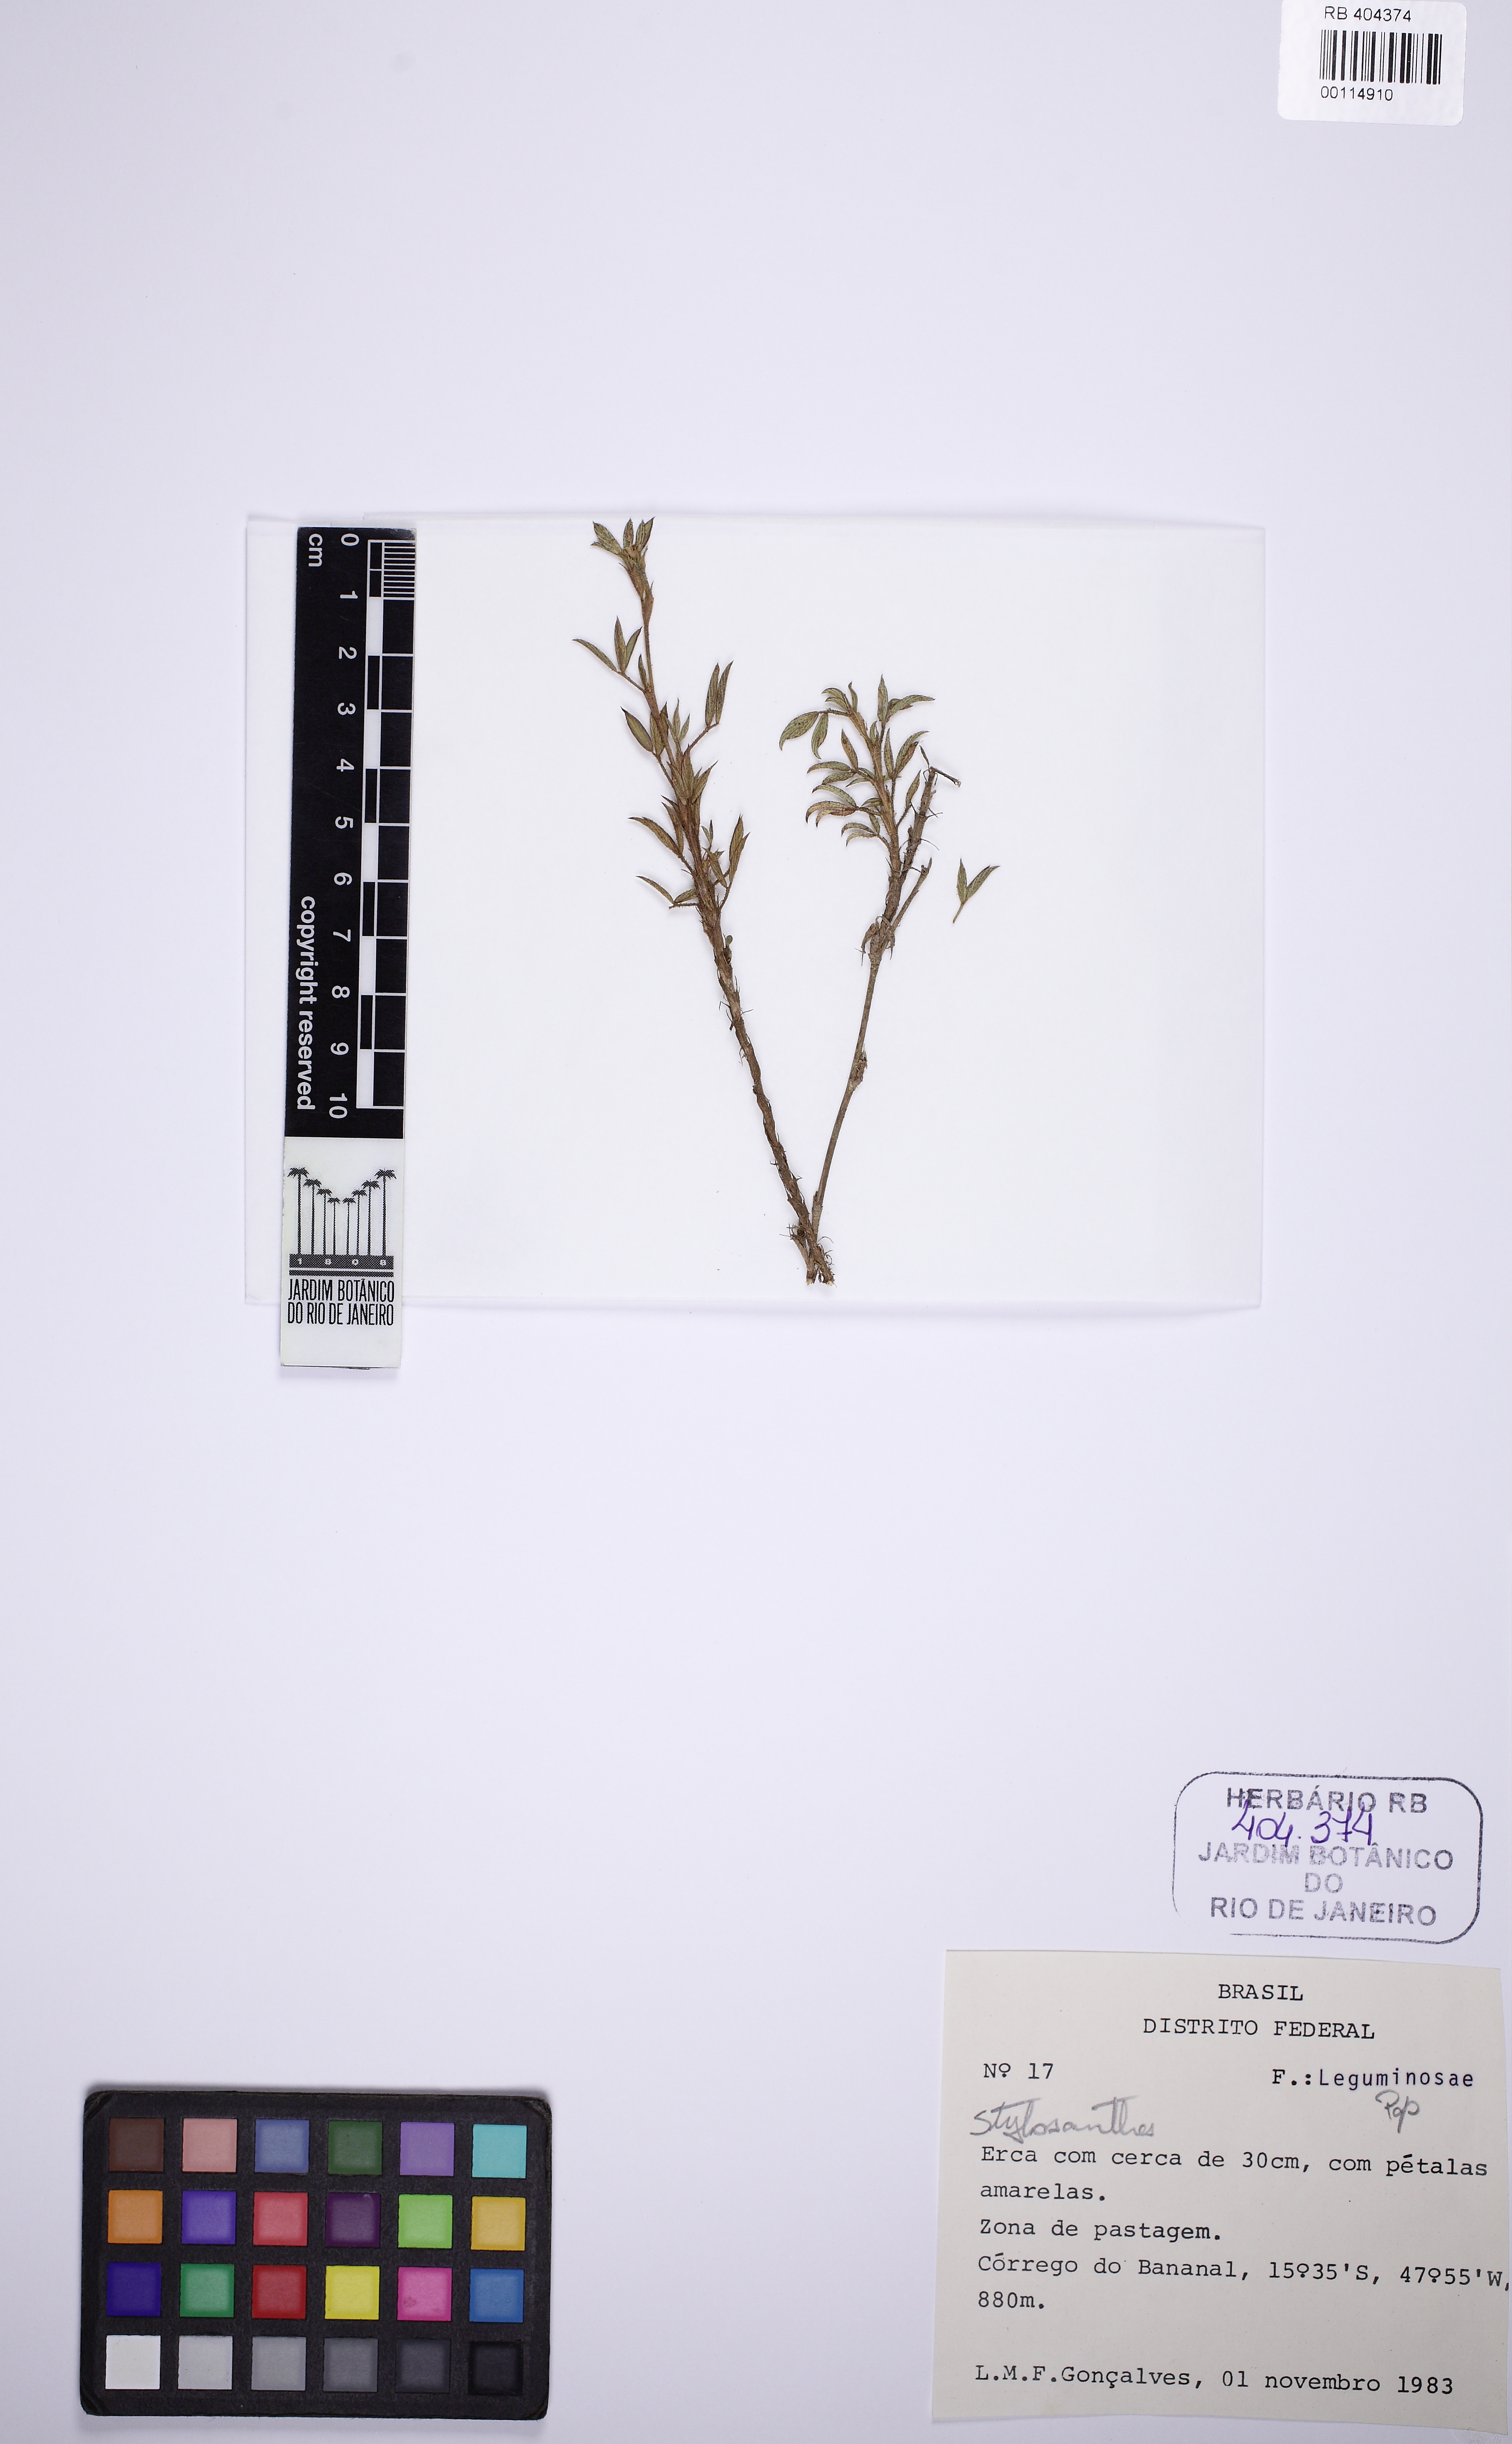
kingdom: Plantae
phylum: Tracheophyta
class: Magnoliopsida
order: Fabales
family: Fabaceae
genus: Stylosanthes
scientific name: Stylosanthes
